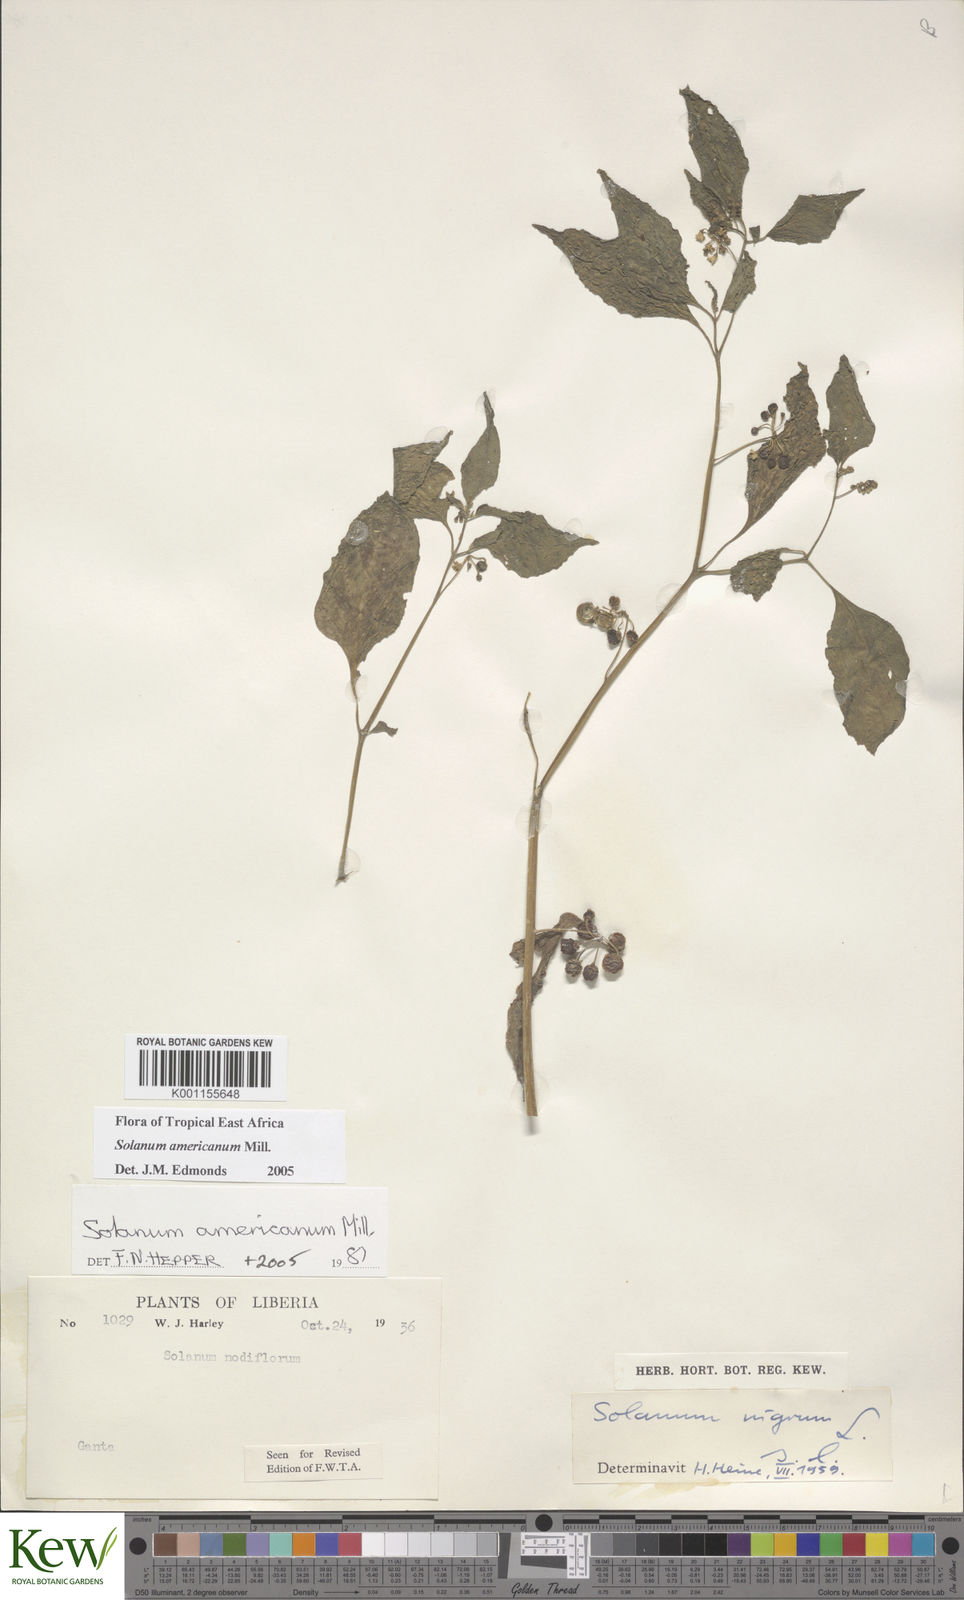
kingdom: Plantae
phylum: Tracheophyta
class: Magnoliopsida
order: Solanales
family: Solanaceae
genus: Solanum
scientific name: Solanum scabrum
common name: Garden-huckleberry
